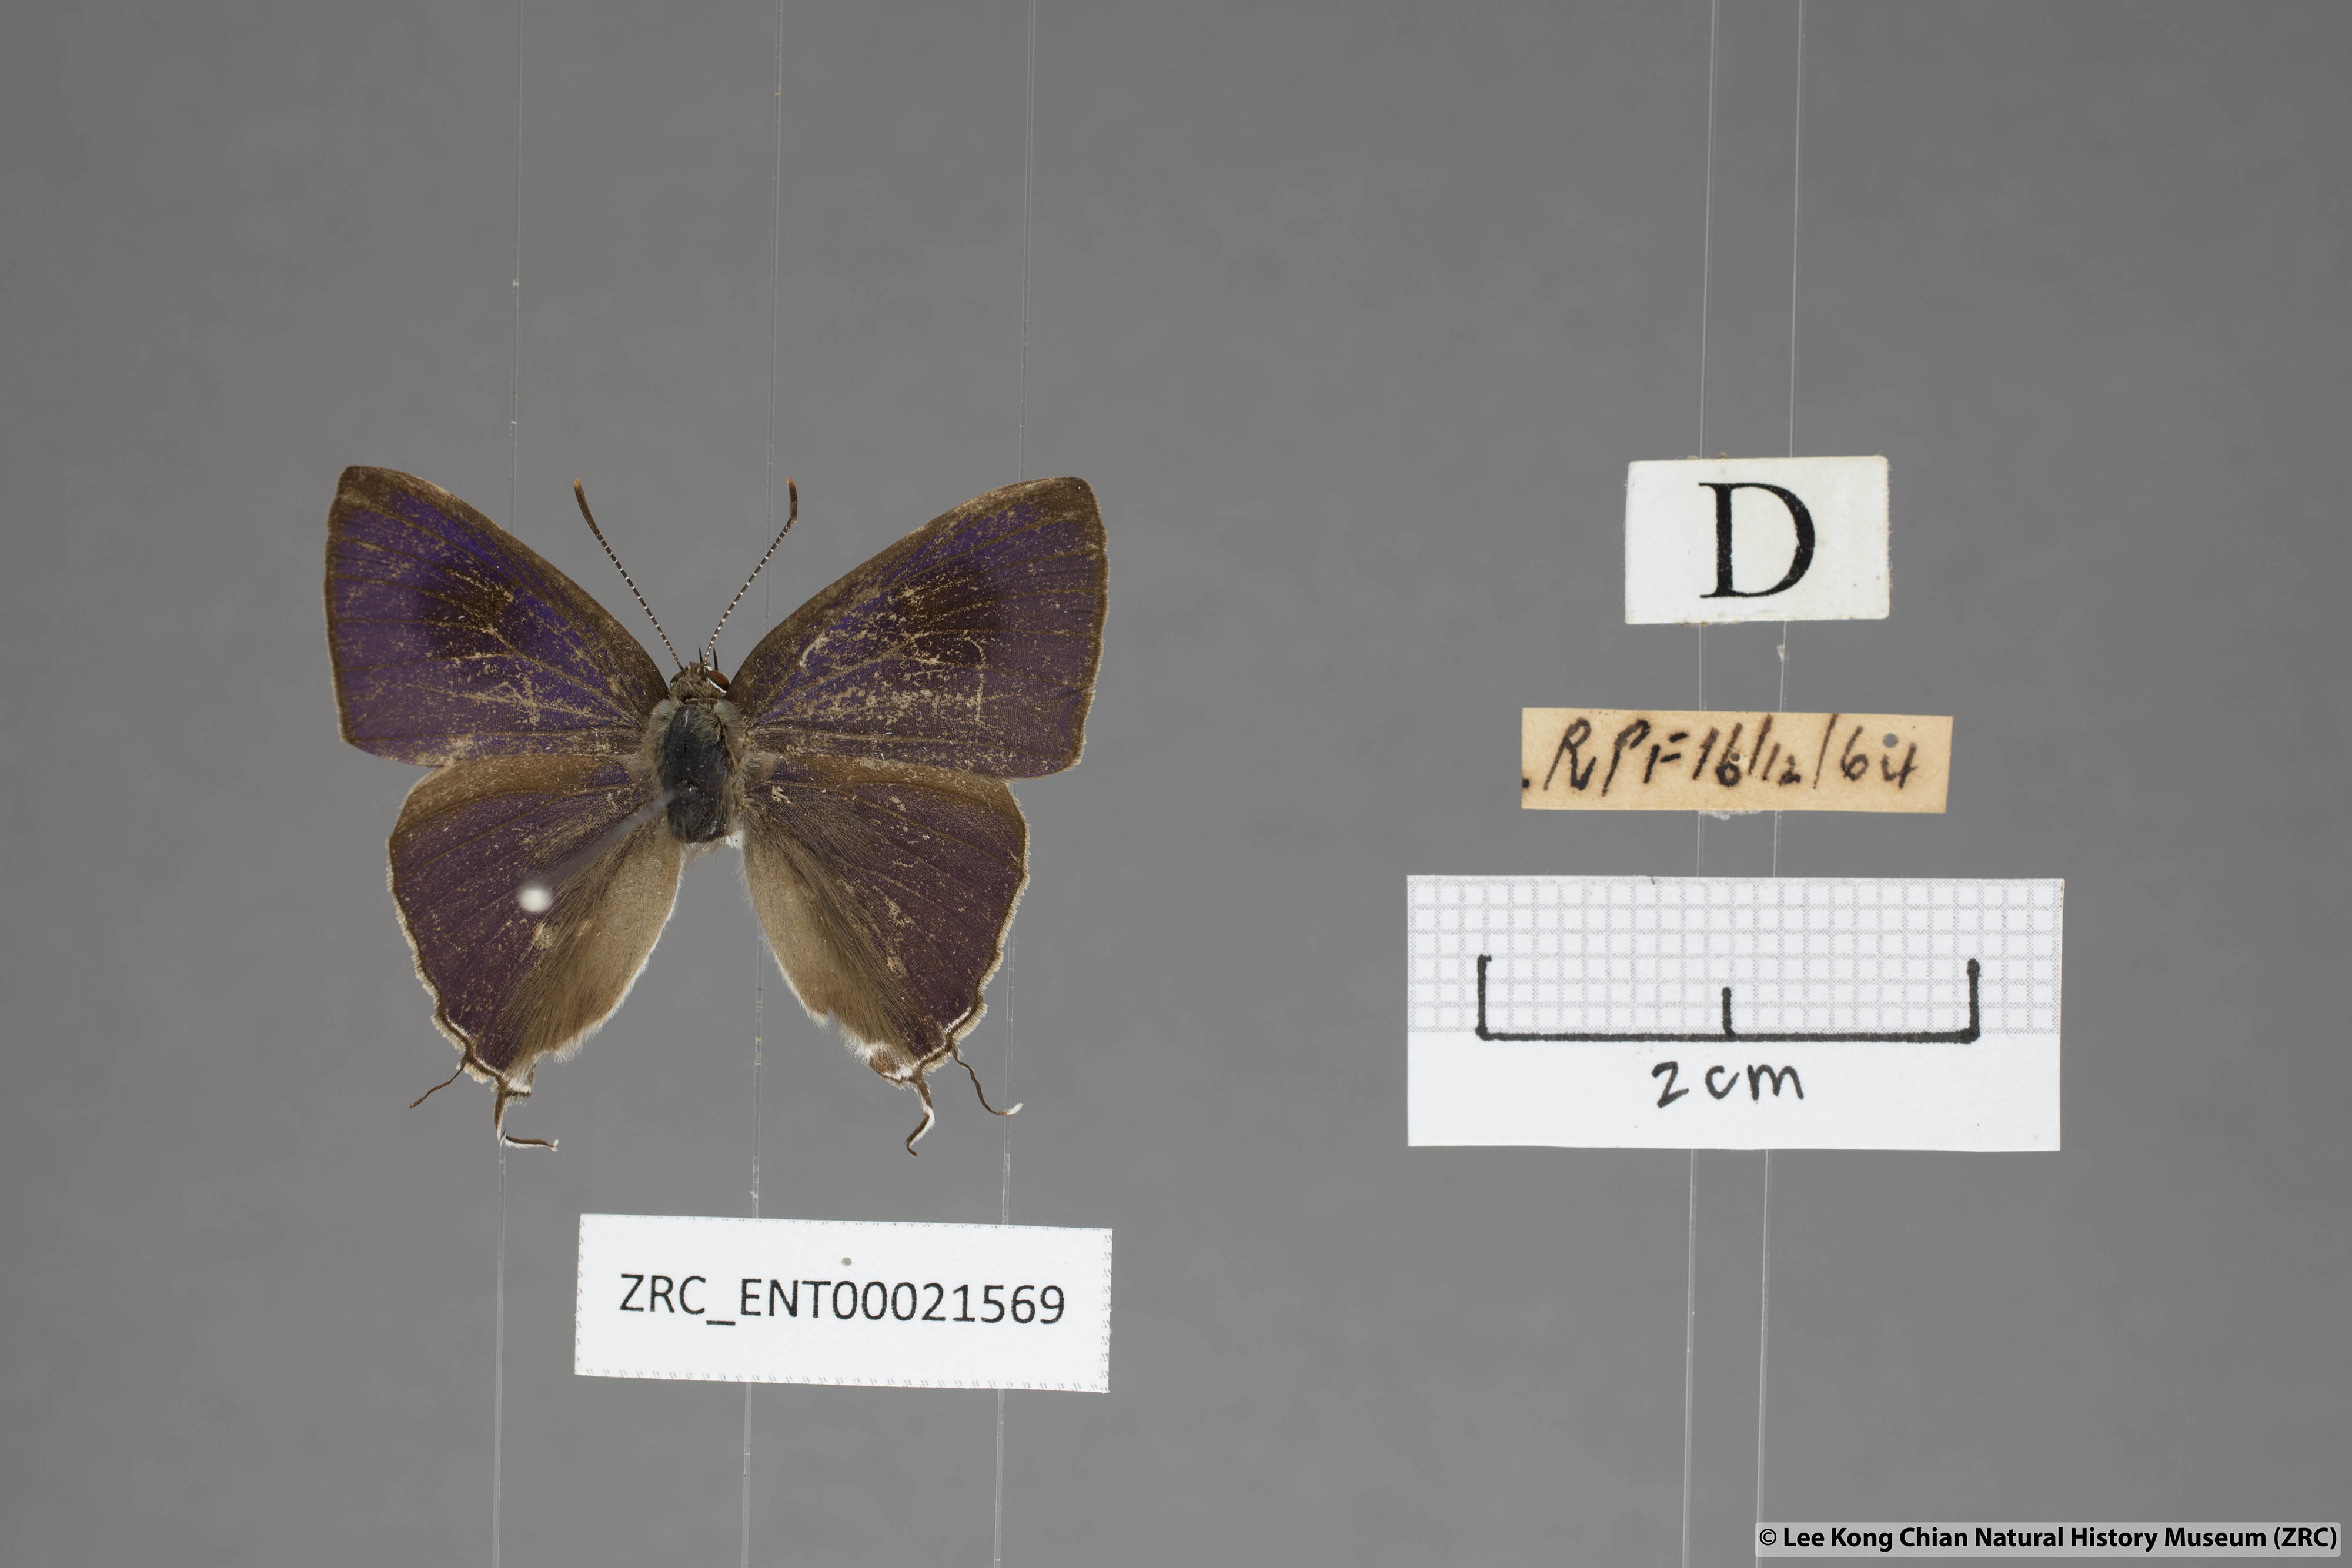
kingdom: Animalia
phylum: Arthropoda
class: Insecta
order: Lepidoptera
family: Lycaenidae
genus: Hypolycaena
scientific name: Hypolycaena erylus
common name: Common tit
